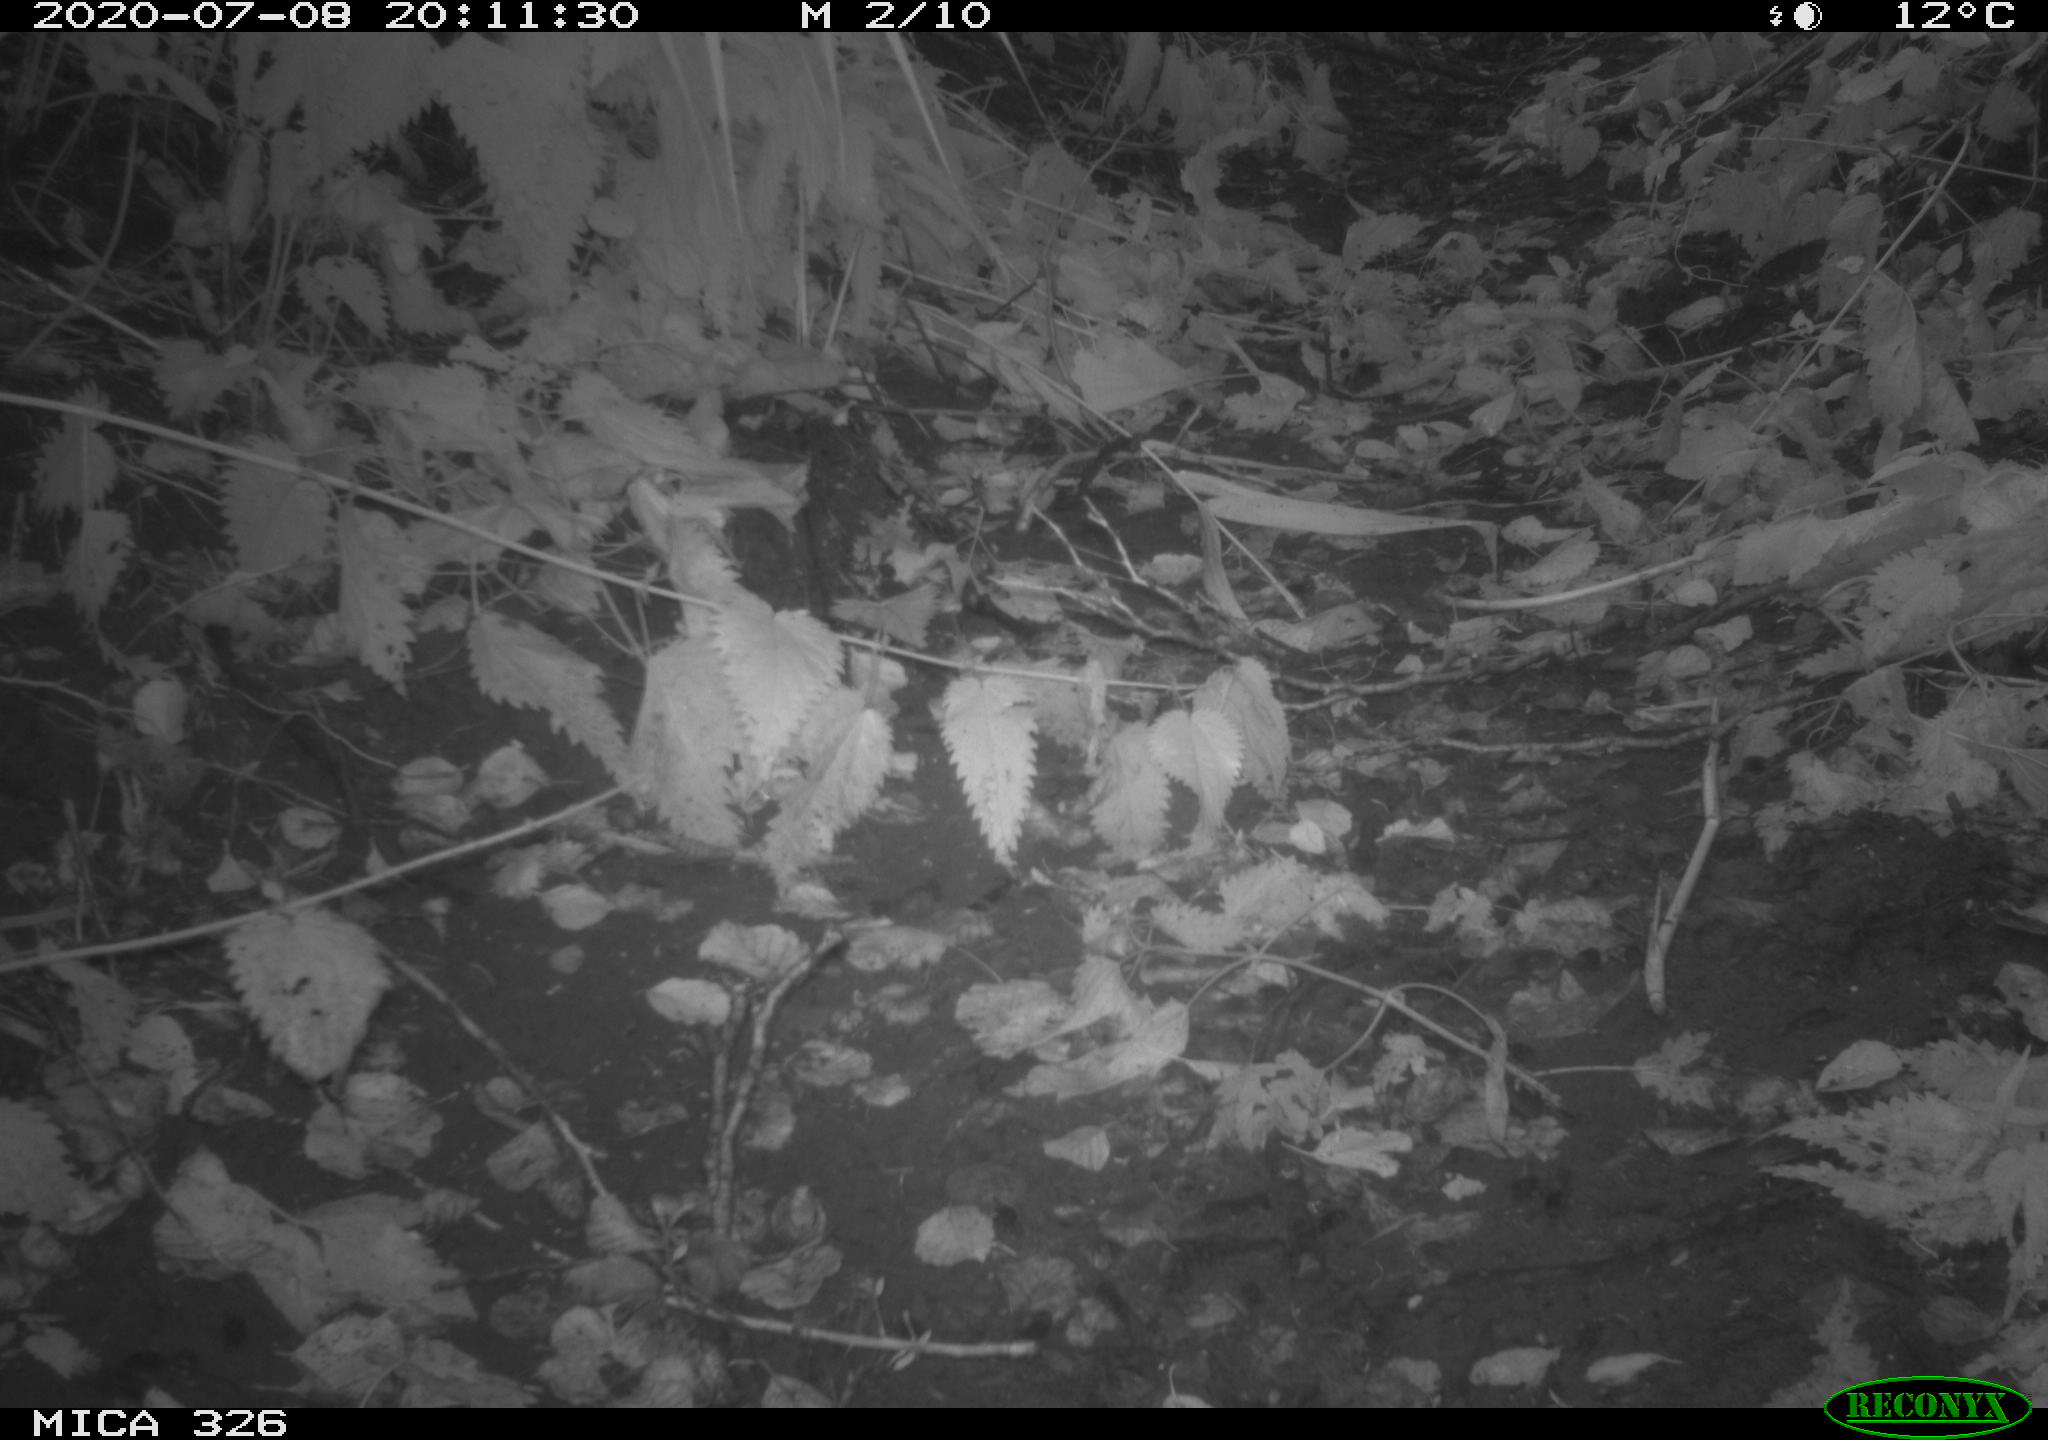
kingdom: Animalia
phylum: Chordata
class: Aves
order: Anseriformes
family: Anatidae
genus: Anas
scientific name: Anas platyrhynchos
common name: Mallard
